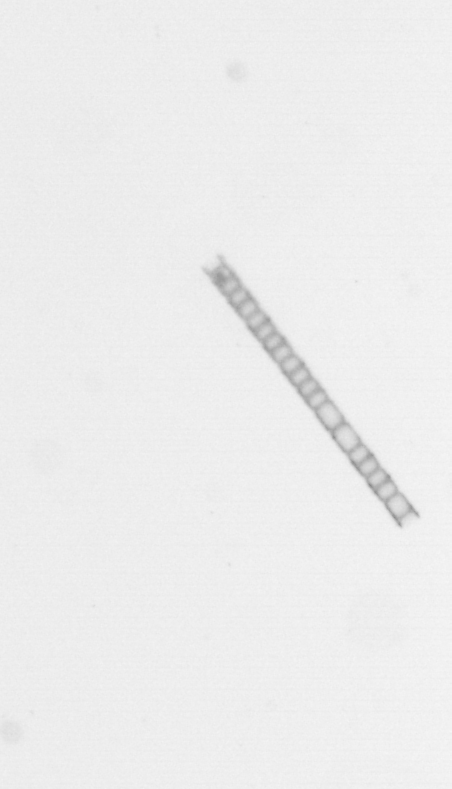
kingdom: Chromista
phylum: Ochrophyta
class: Bacillariophyceae
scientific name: Bacillariophyceae
